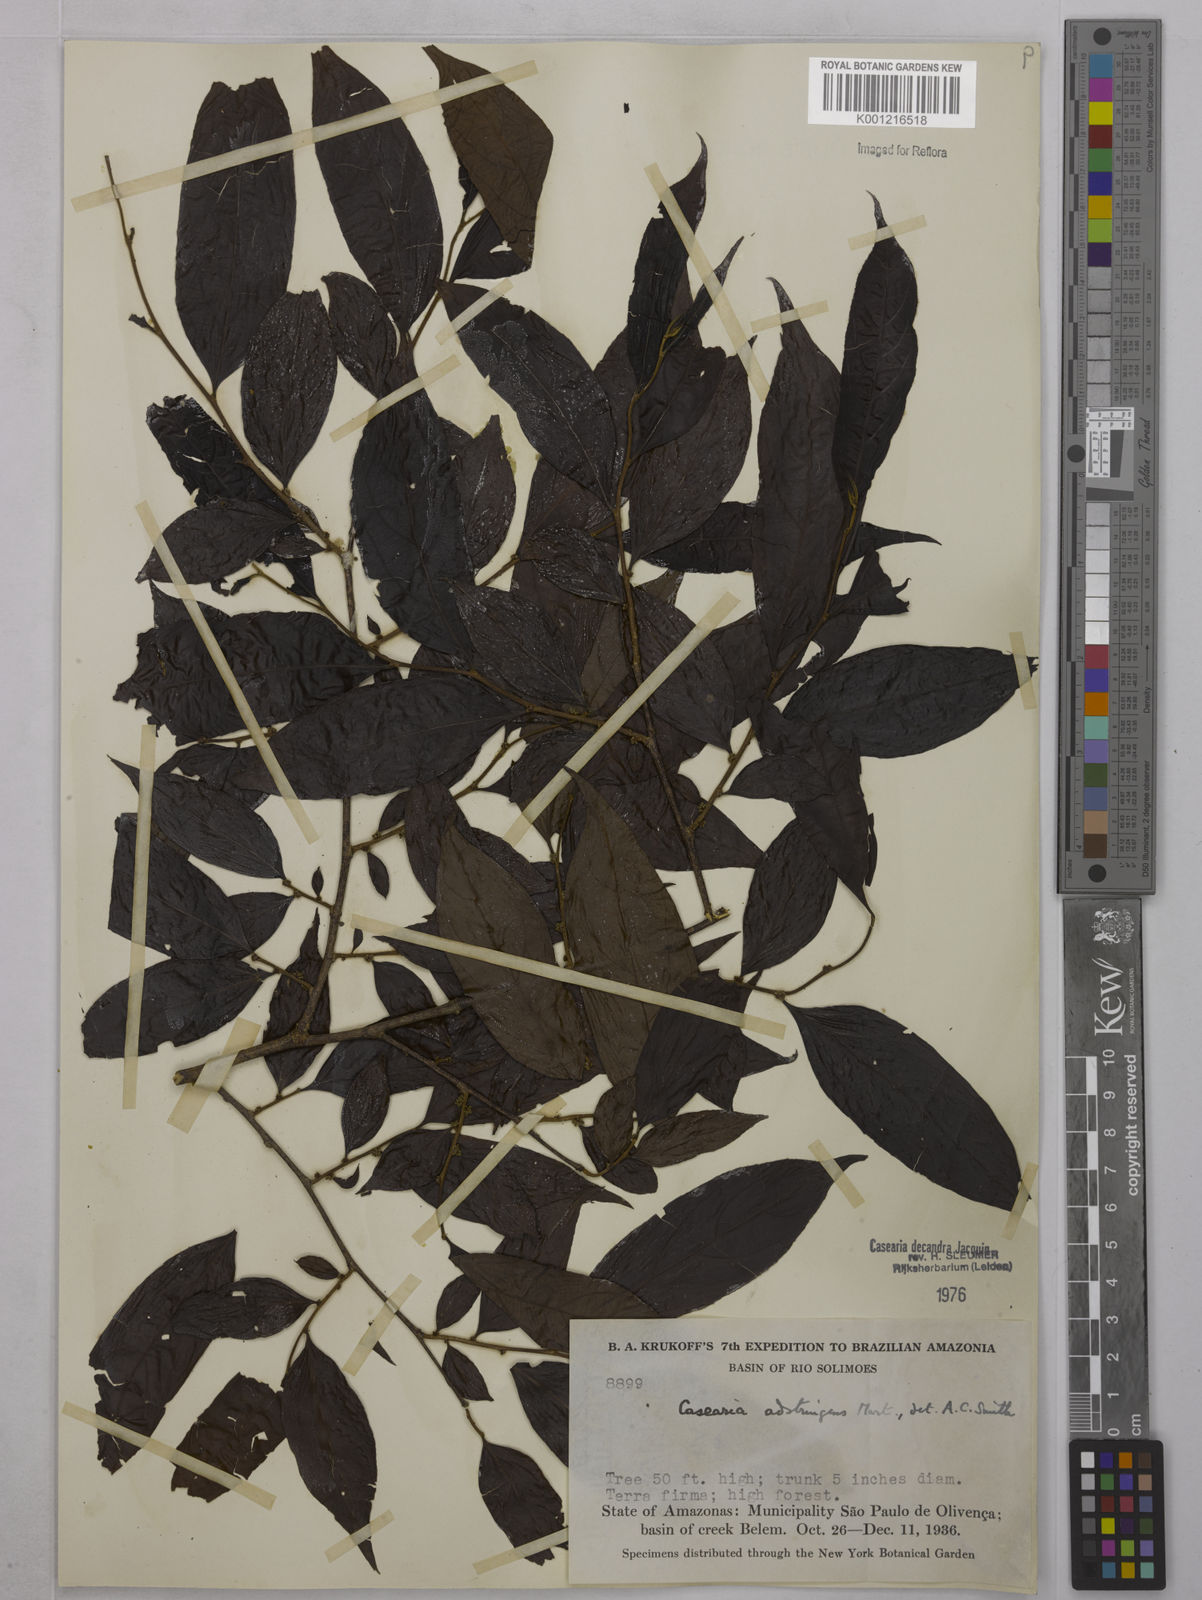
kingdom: Plantae
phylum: Tracheophyta
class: Magnoliopsida
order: Malpighiales
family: Salicaceae
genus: Casearia
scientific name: Casearia decandra
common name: Crack open
